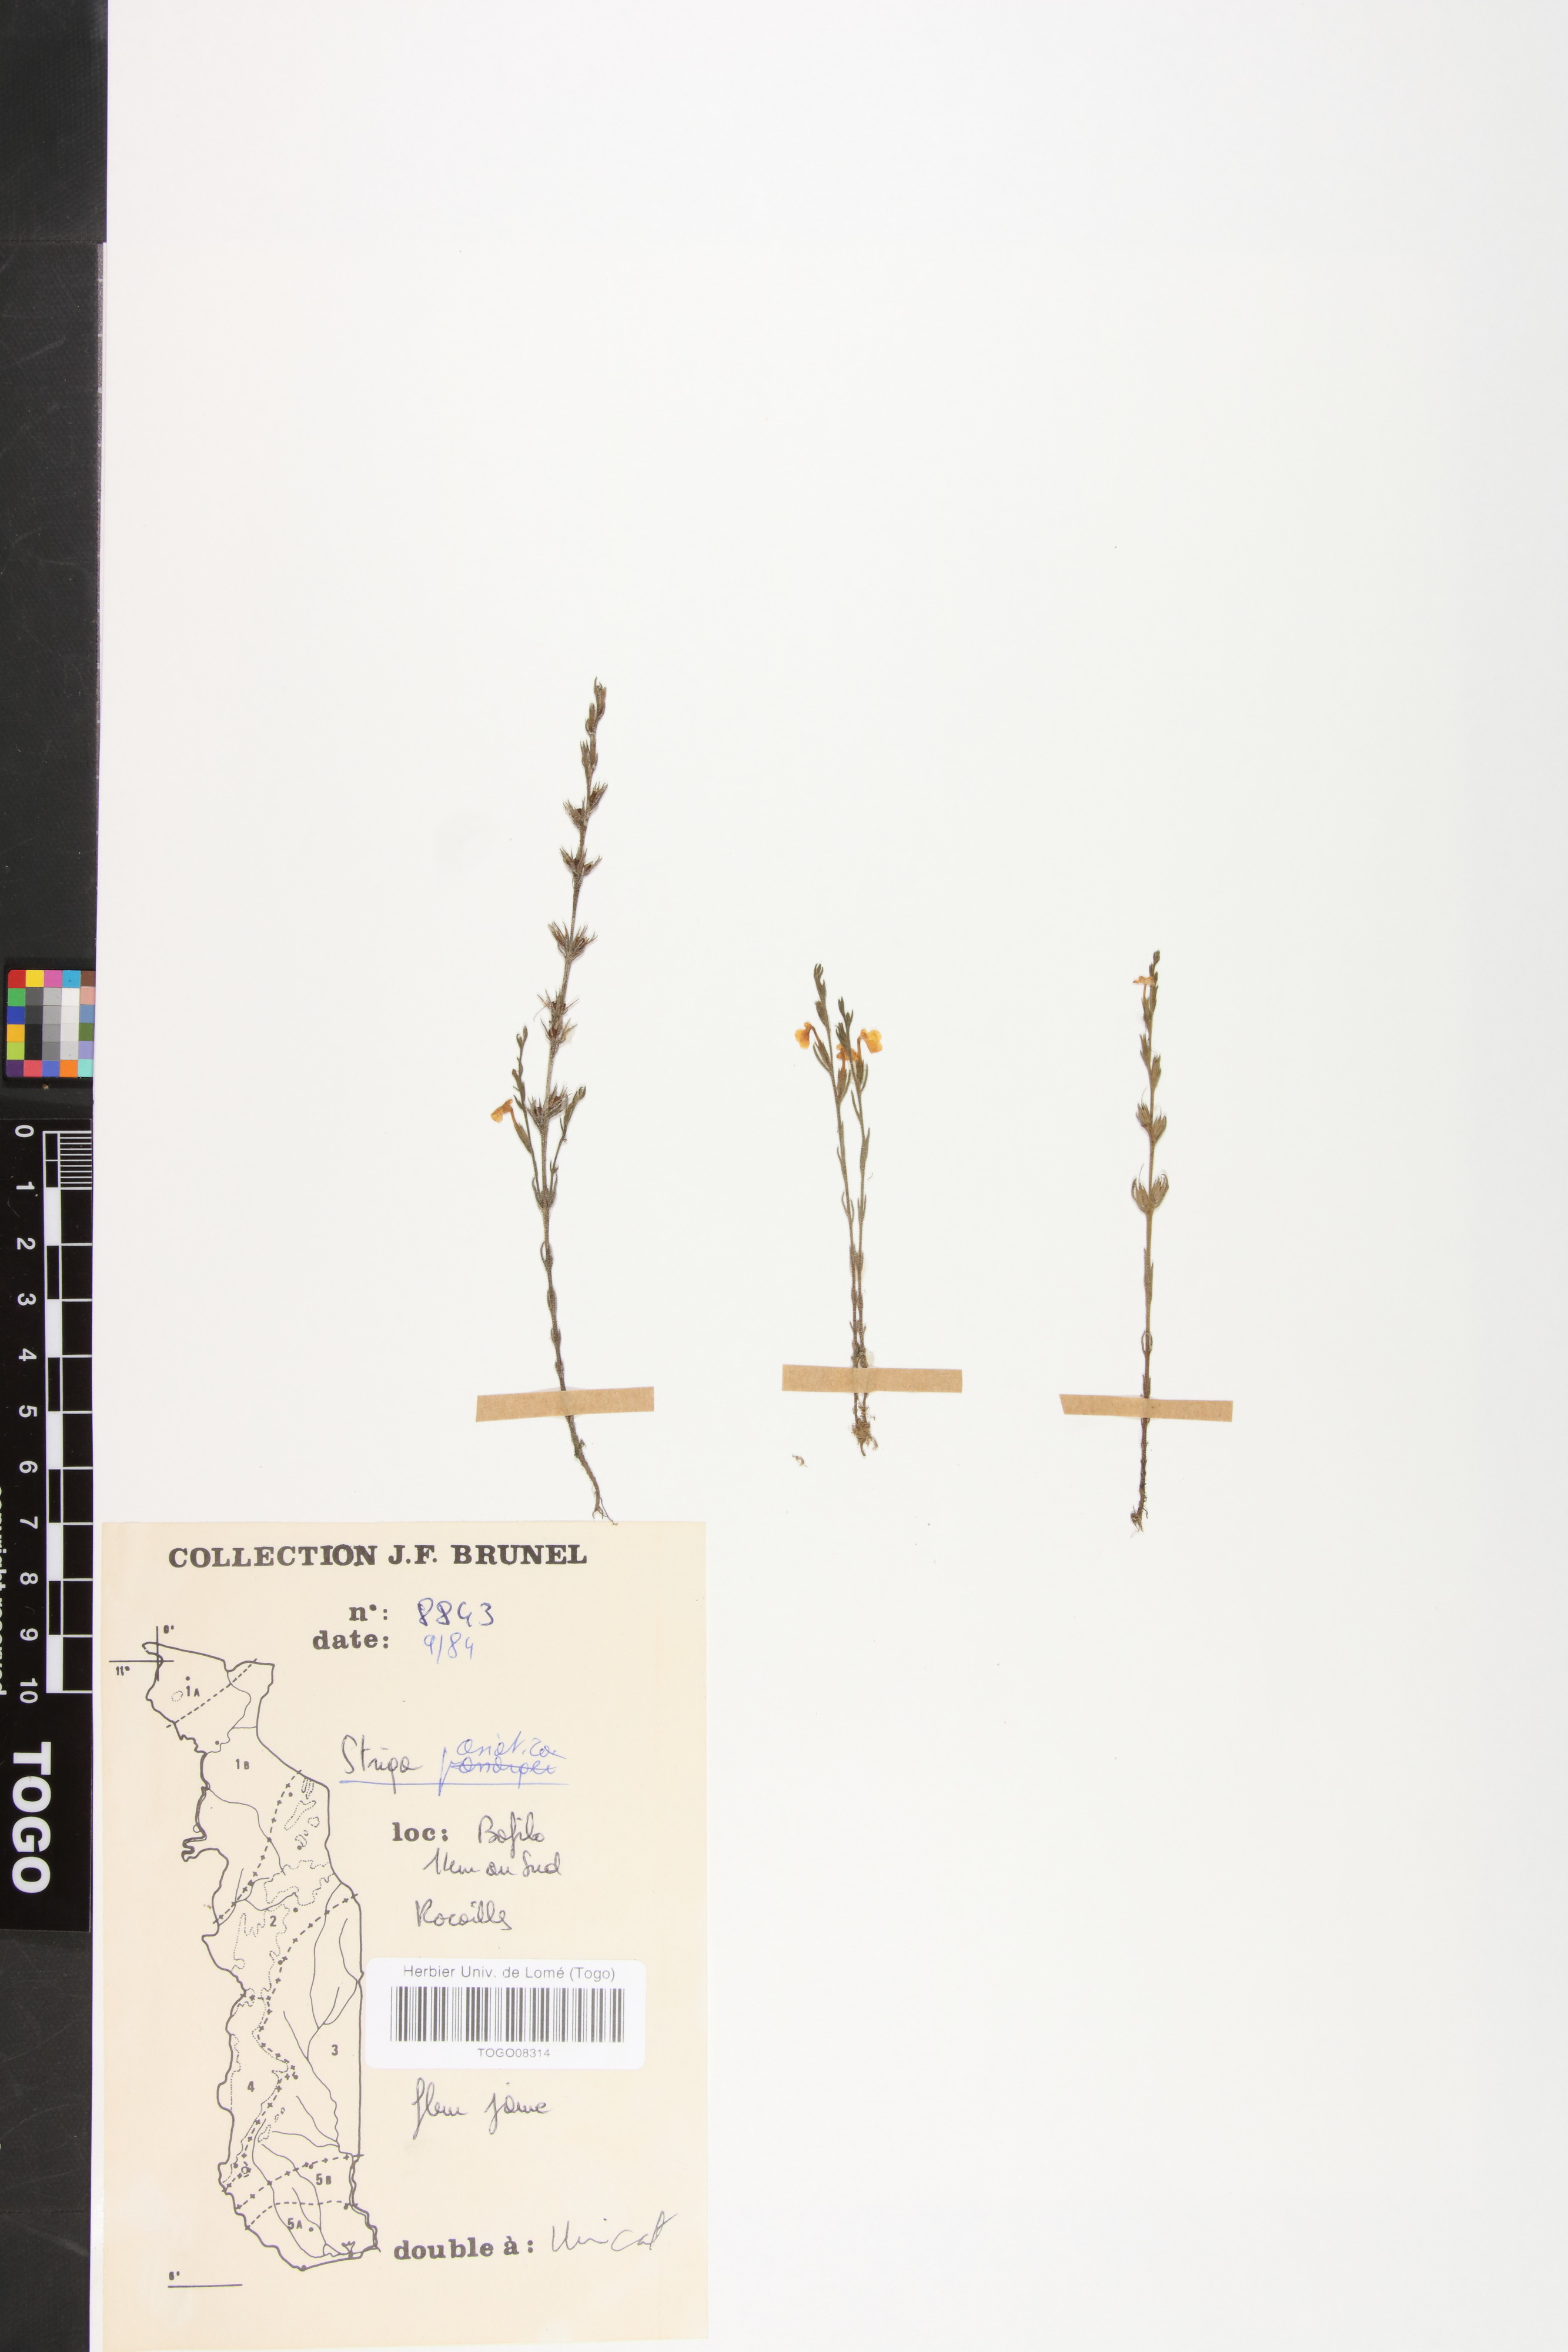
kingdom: Plantae
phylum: Tracheophyta
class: Magnoliopsida
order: Lamiales
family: Orobanchaceae
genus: Striga
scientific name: Striga asiatica
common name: Asiatic witchweed
